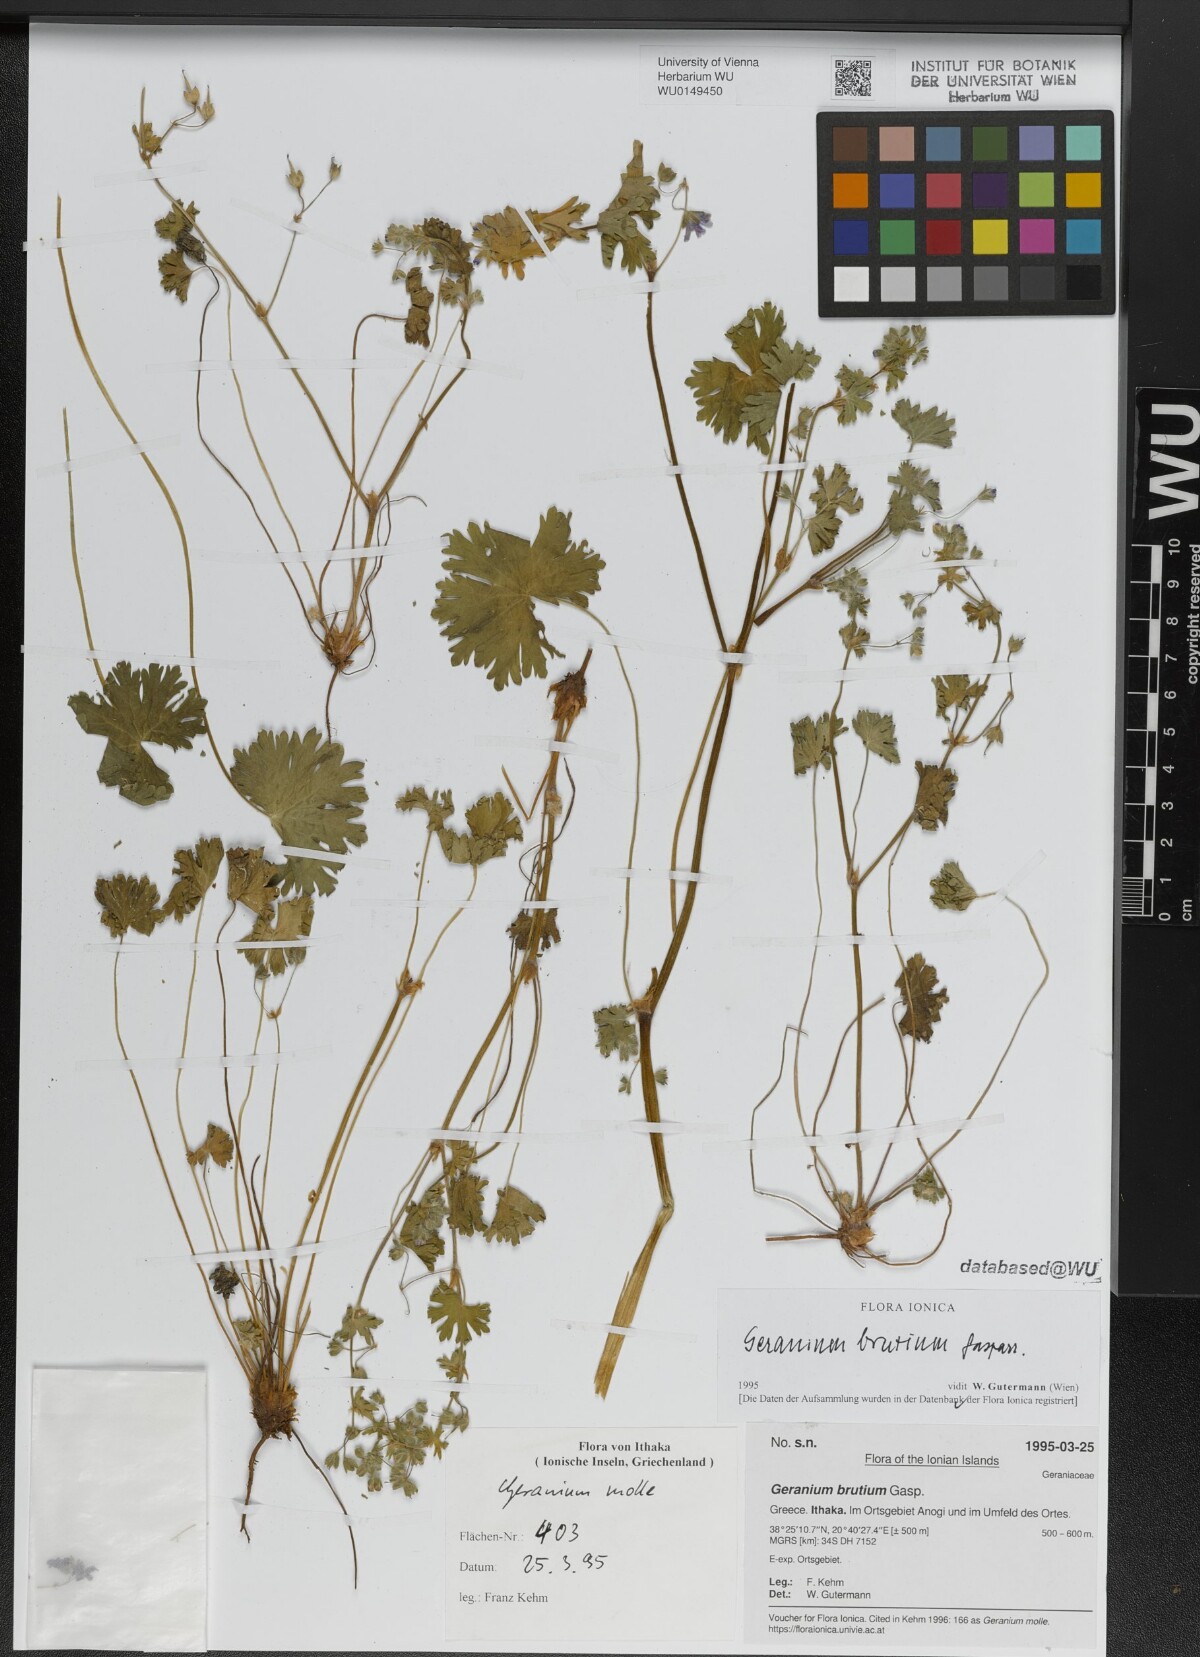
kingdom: Plantae
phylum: Tracheophyta
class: Magnoliopsida
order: Geraniales
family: Geraniaceae
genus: Geranium
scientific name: Geranium molle
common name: Dove's-foot crane's-bill
